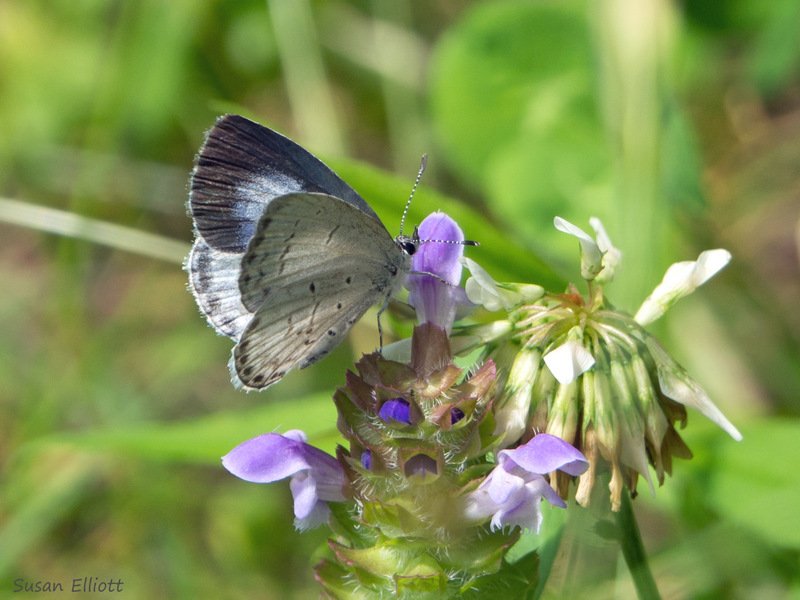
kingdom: Animalia
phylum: Arthropoda
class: Insecta
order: Lepidoptera
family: Lycaenidae
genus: Cyaniris
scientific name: Cyaniris neglecta
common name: Summer Azure
